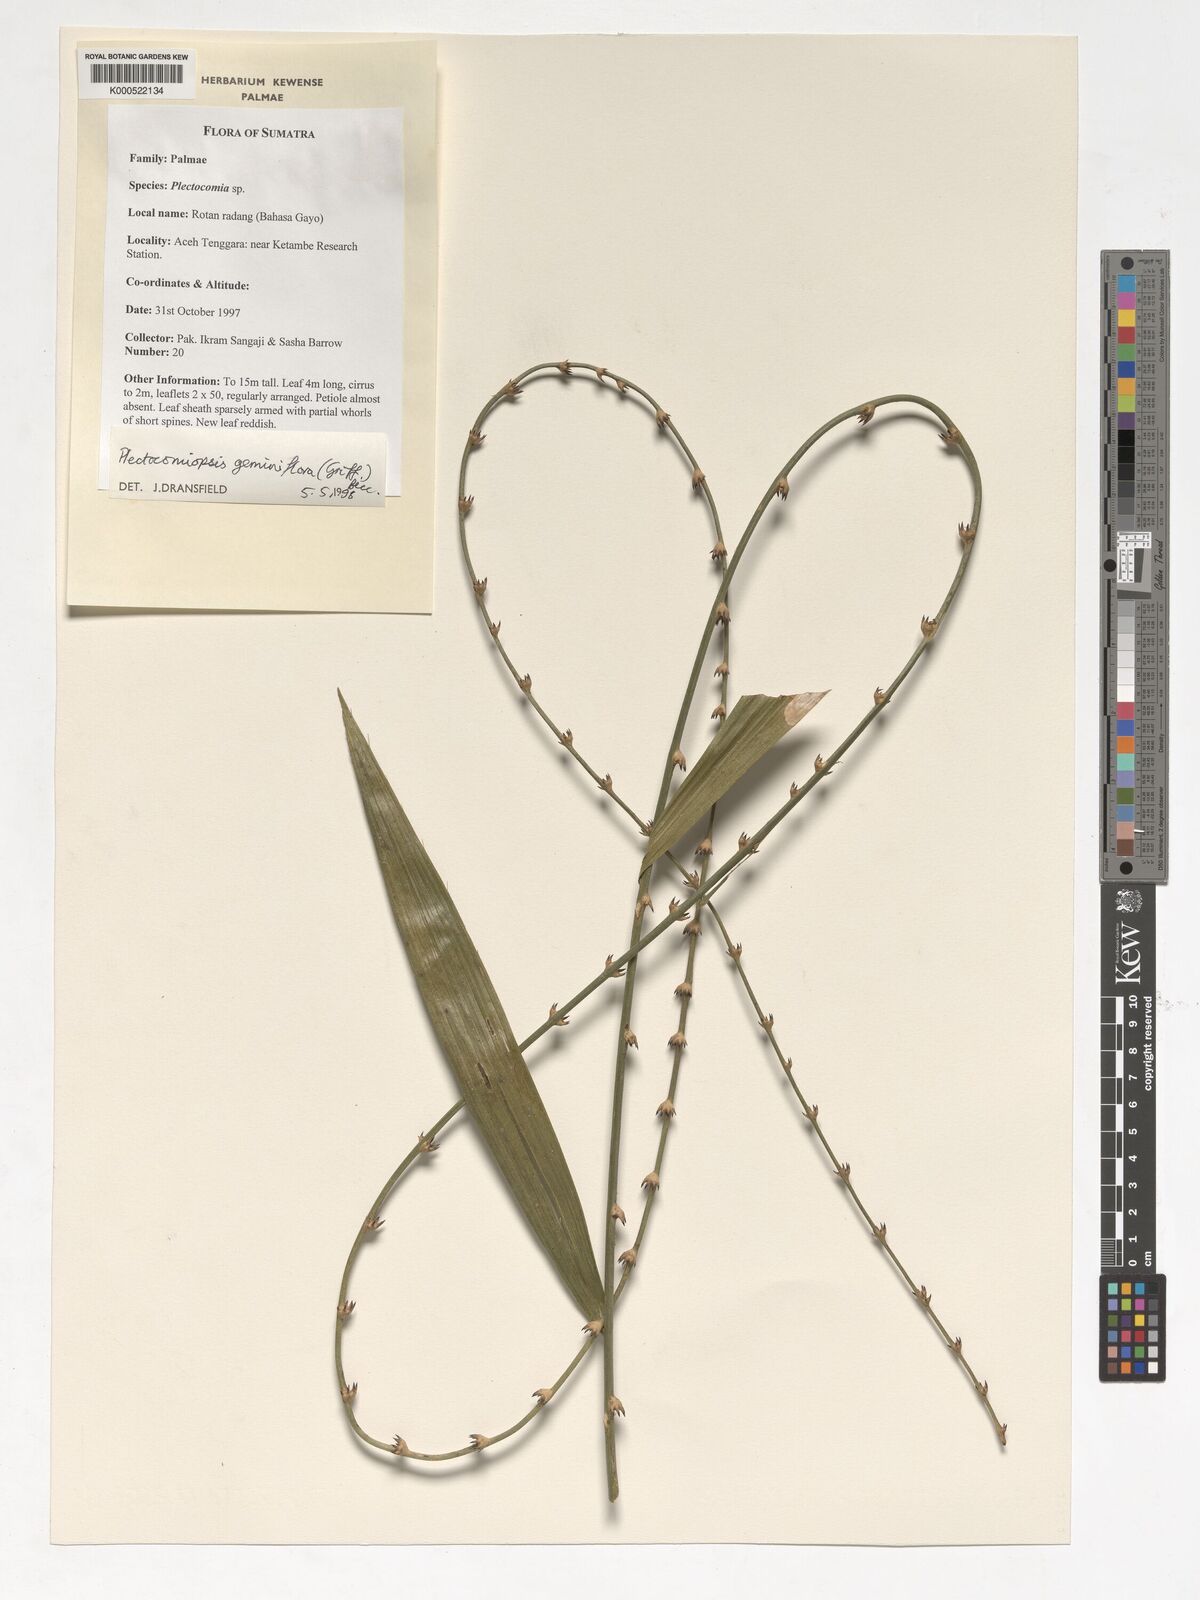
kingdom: Plantae
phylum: Tracheophyta
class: Liliopsida
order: Arecales
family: Arecaceae
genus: Plectocomiopsis
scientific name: Plectocomiopsis geminiflora
